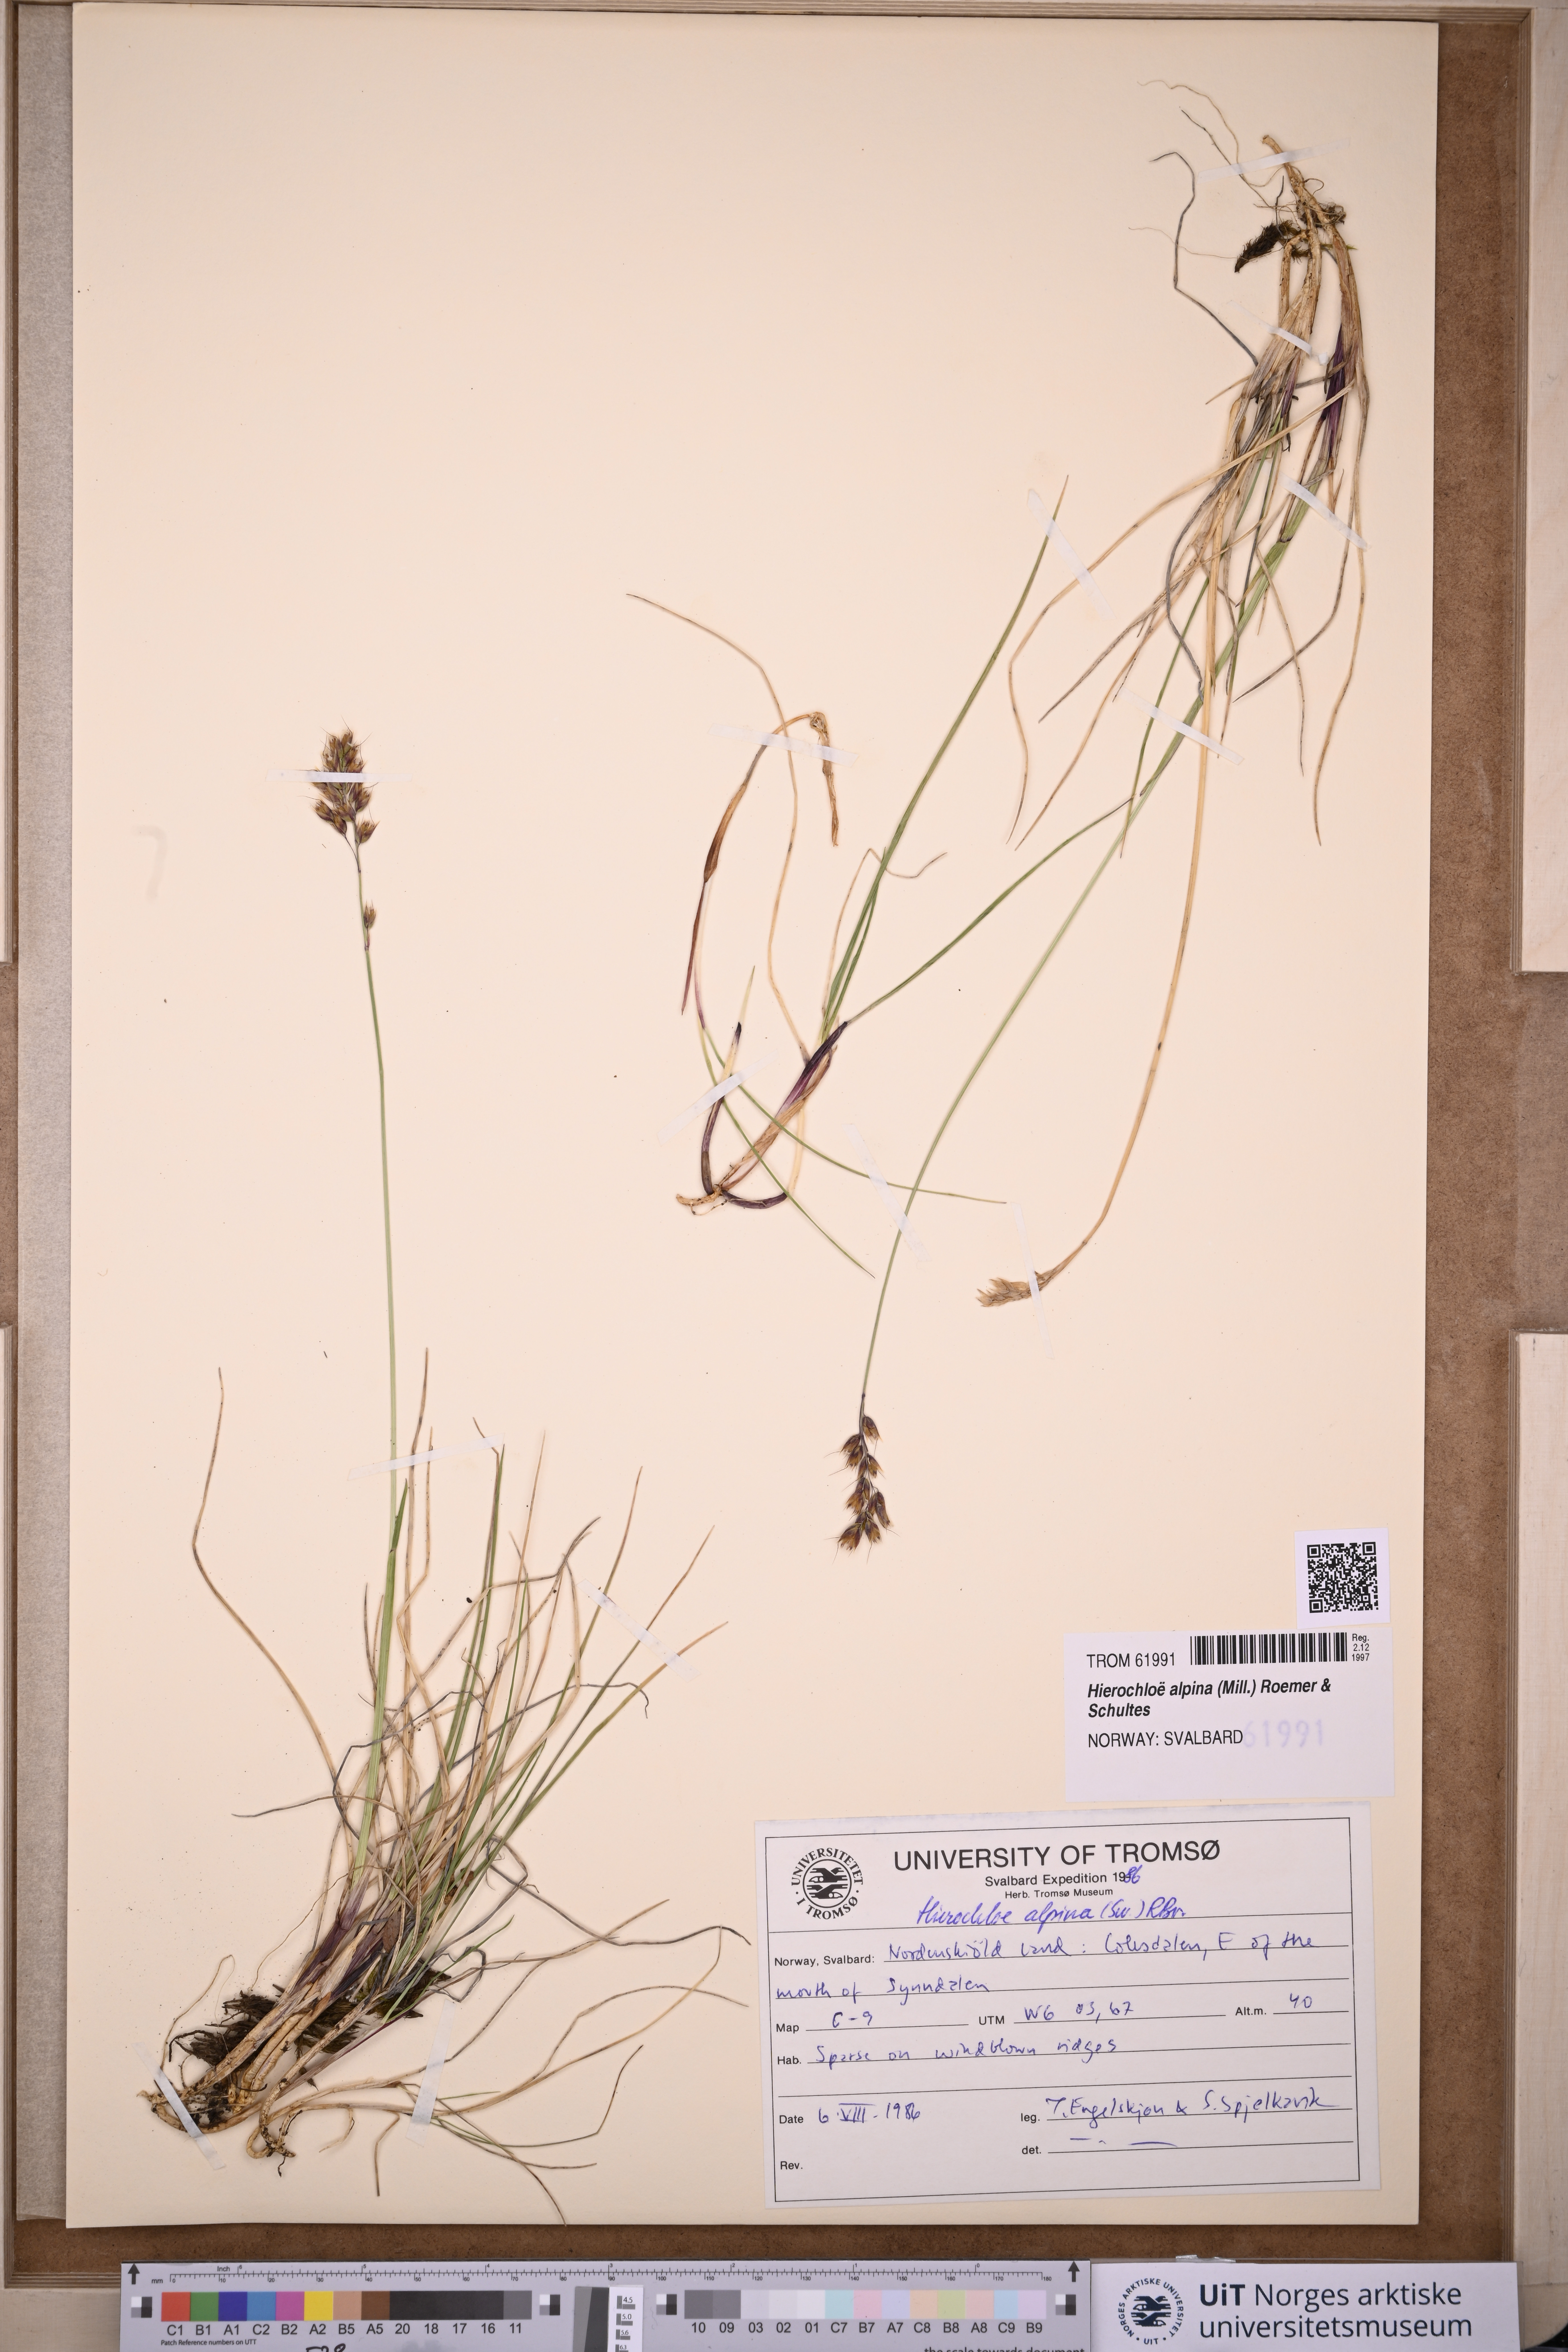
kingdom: Plantae
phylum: Tracheophyta
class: Liliopsida
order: Poales
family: Poaceae
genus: Anthoxanthum
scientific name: Anthoxanthum monticola
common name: Alpine sweetgrass
